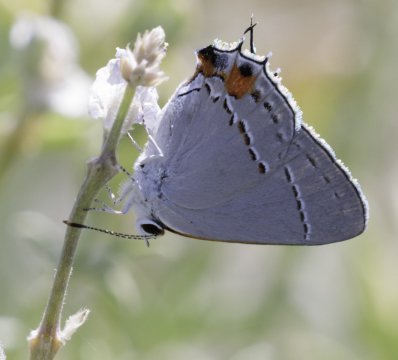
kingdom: Animalia
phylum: Arthropoda
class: Insecta
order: Lepidoptera
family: Lycaenidae
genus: Strymon
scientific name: Strymon melinus
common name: Gray Hairstreak
